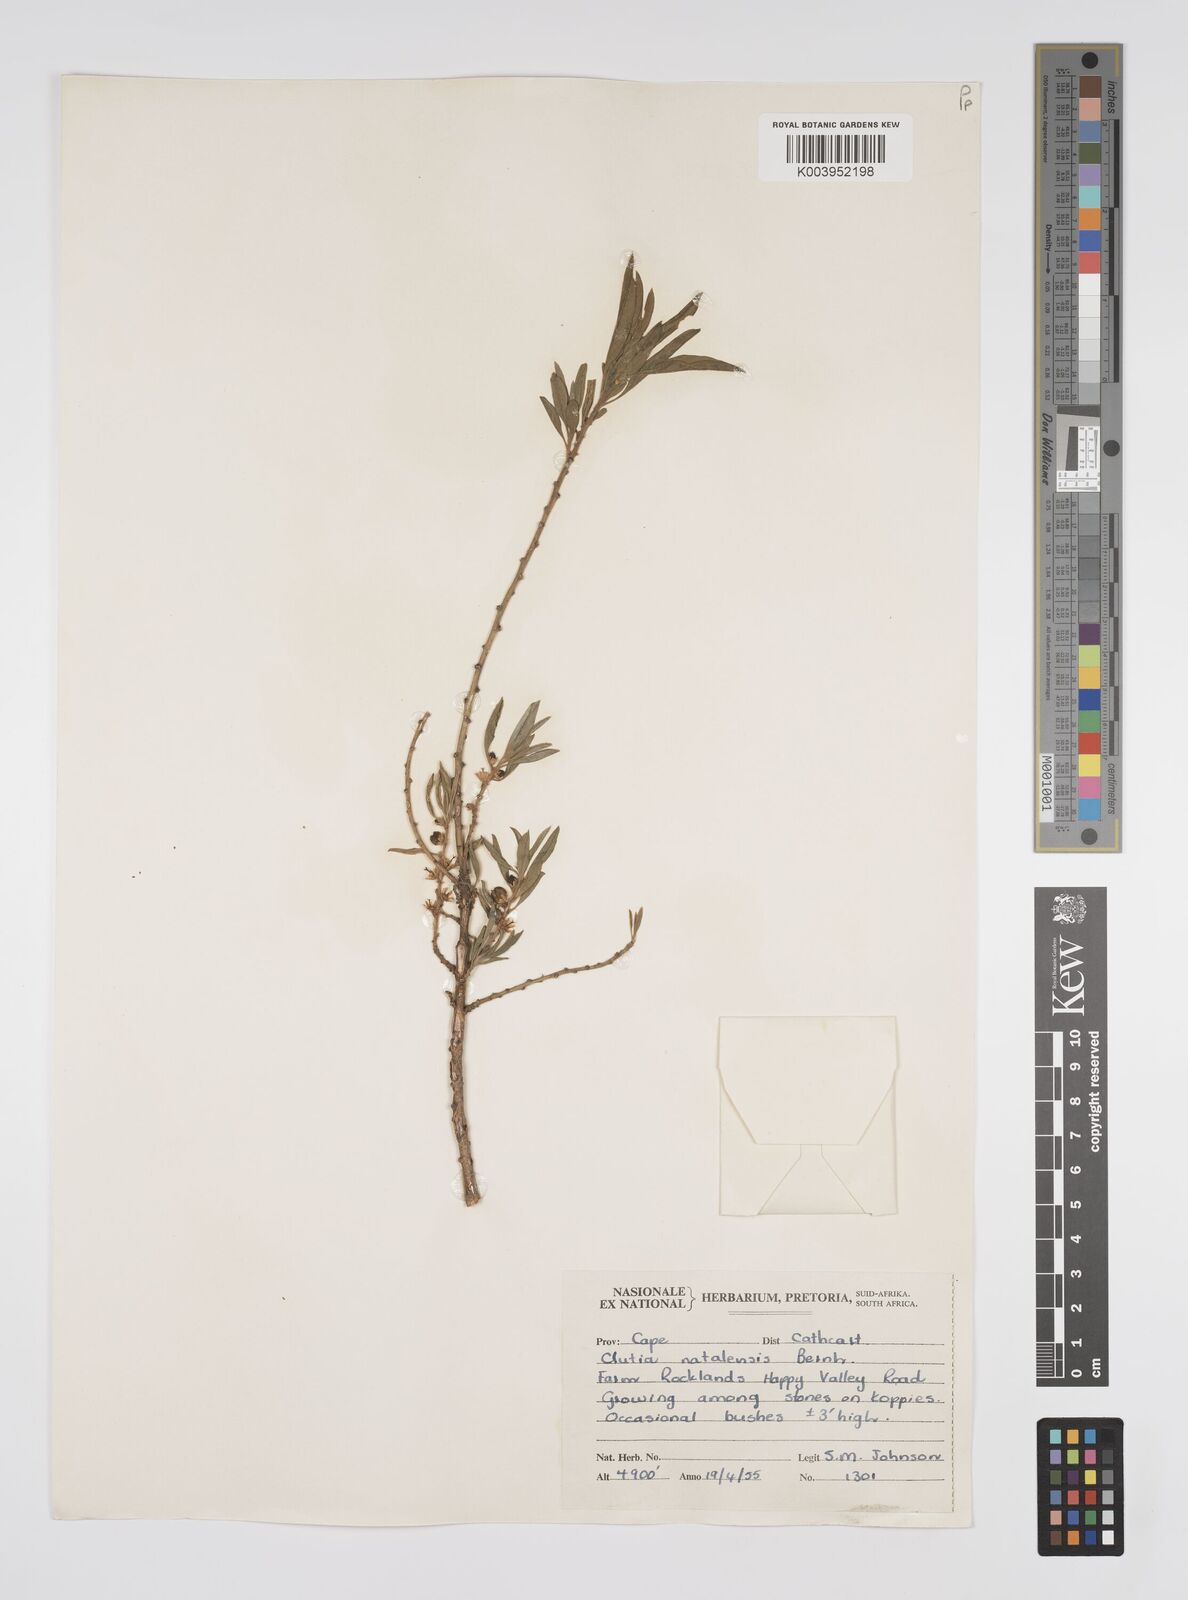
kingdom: Plantae
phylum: Tracheophyta
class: Magnoliopsida
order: Malpighiales
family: Peraceae
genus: Clutia
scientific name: Clutia natalensis
